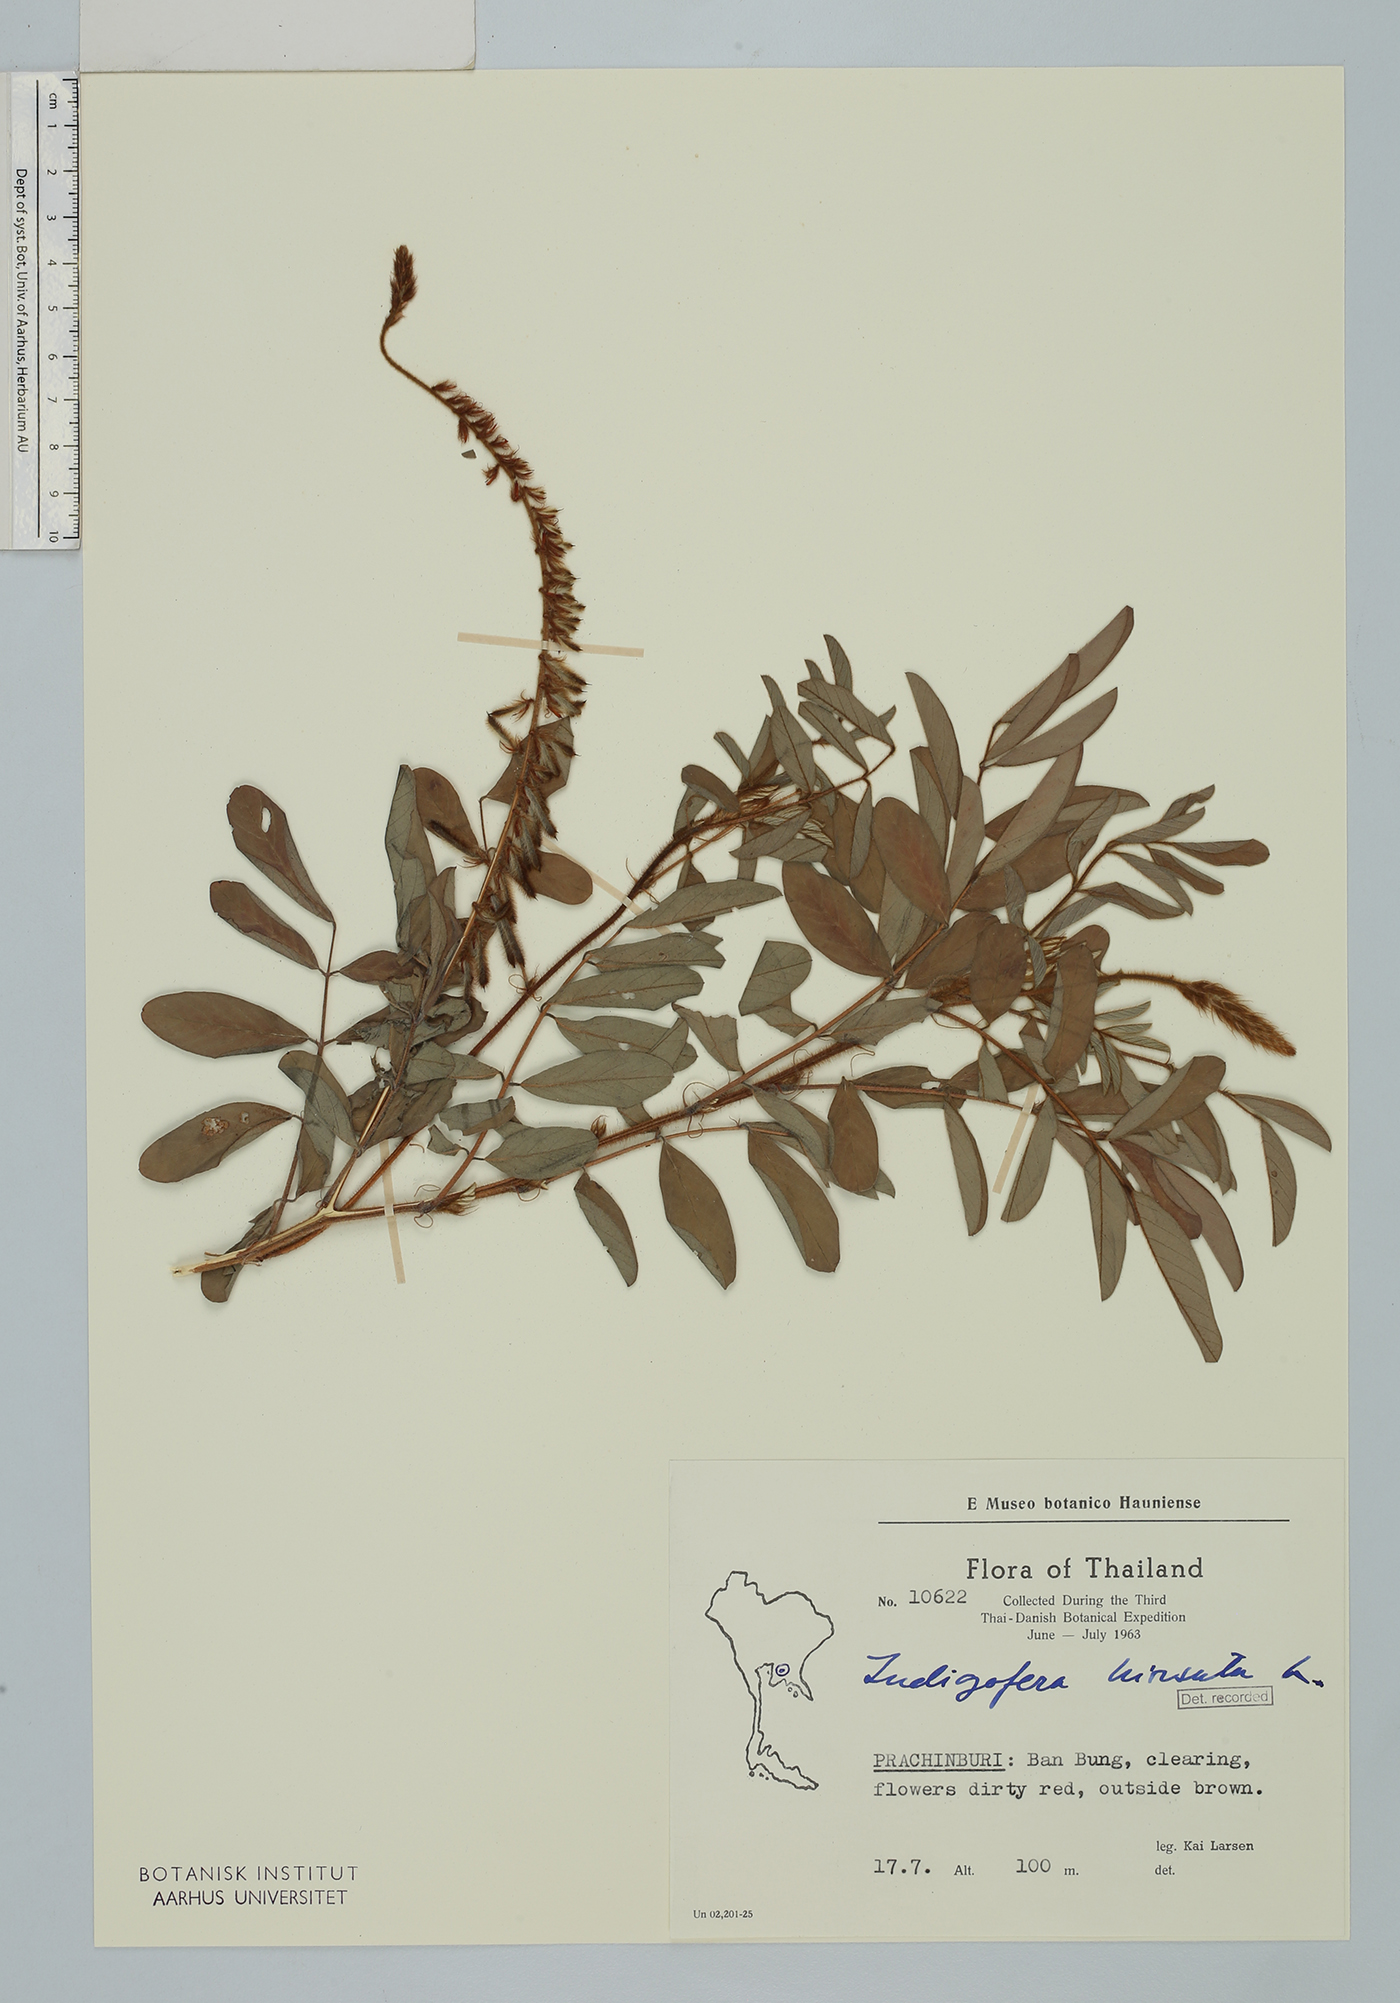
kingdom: Plantae
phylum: Tracheophyta
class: Magnoliopsida
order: Fabales
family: Fabaceae
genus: Indigofera
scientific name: Indigofera hirsuta
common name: Hairy indigo
